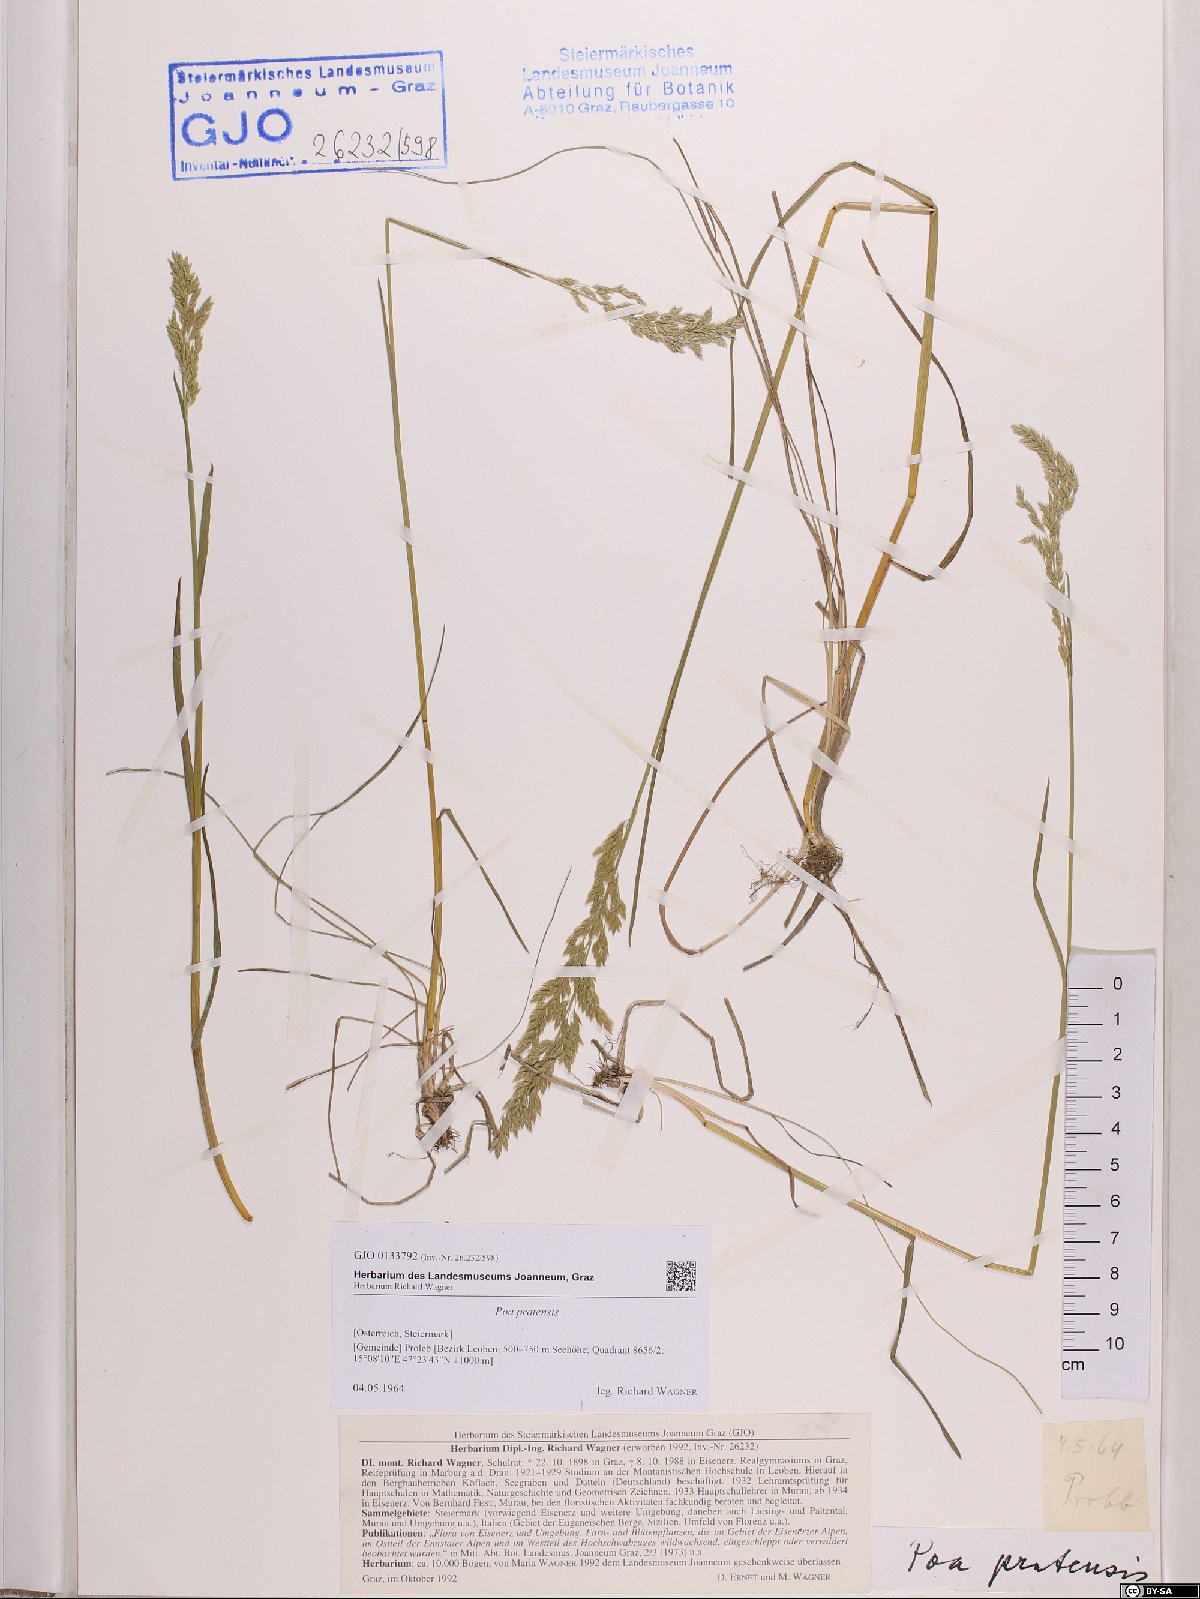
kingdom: Plantae
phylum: Tracheophyta
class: Liliopsida
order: Poales
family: Poaceae
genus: Poa
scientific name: Poa pratensis
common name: Kentucky bluegrass
